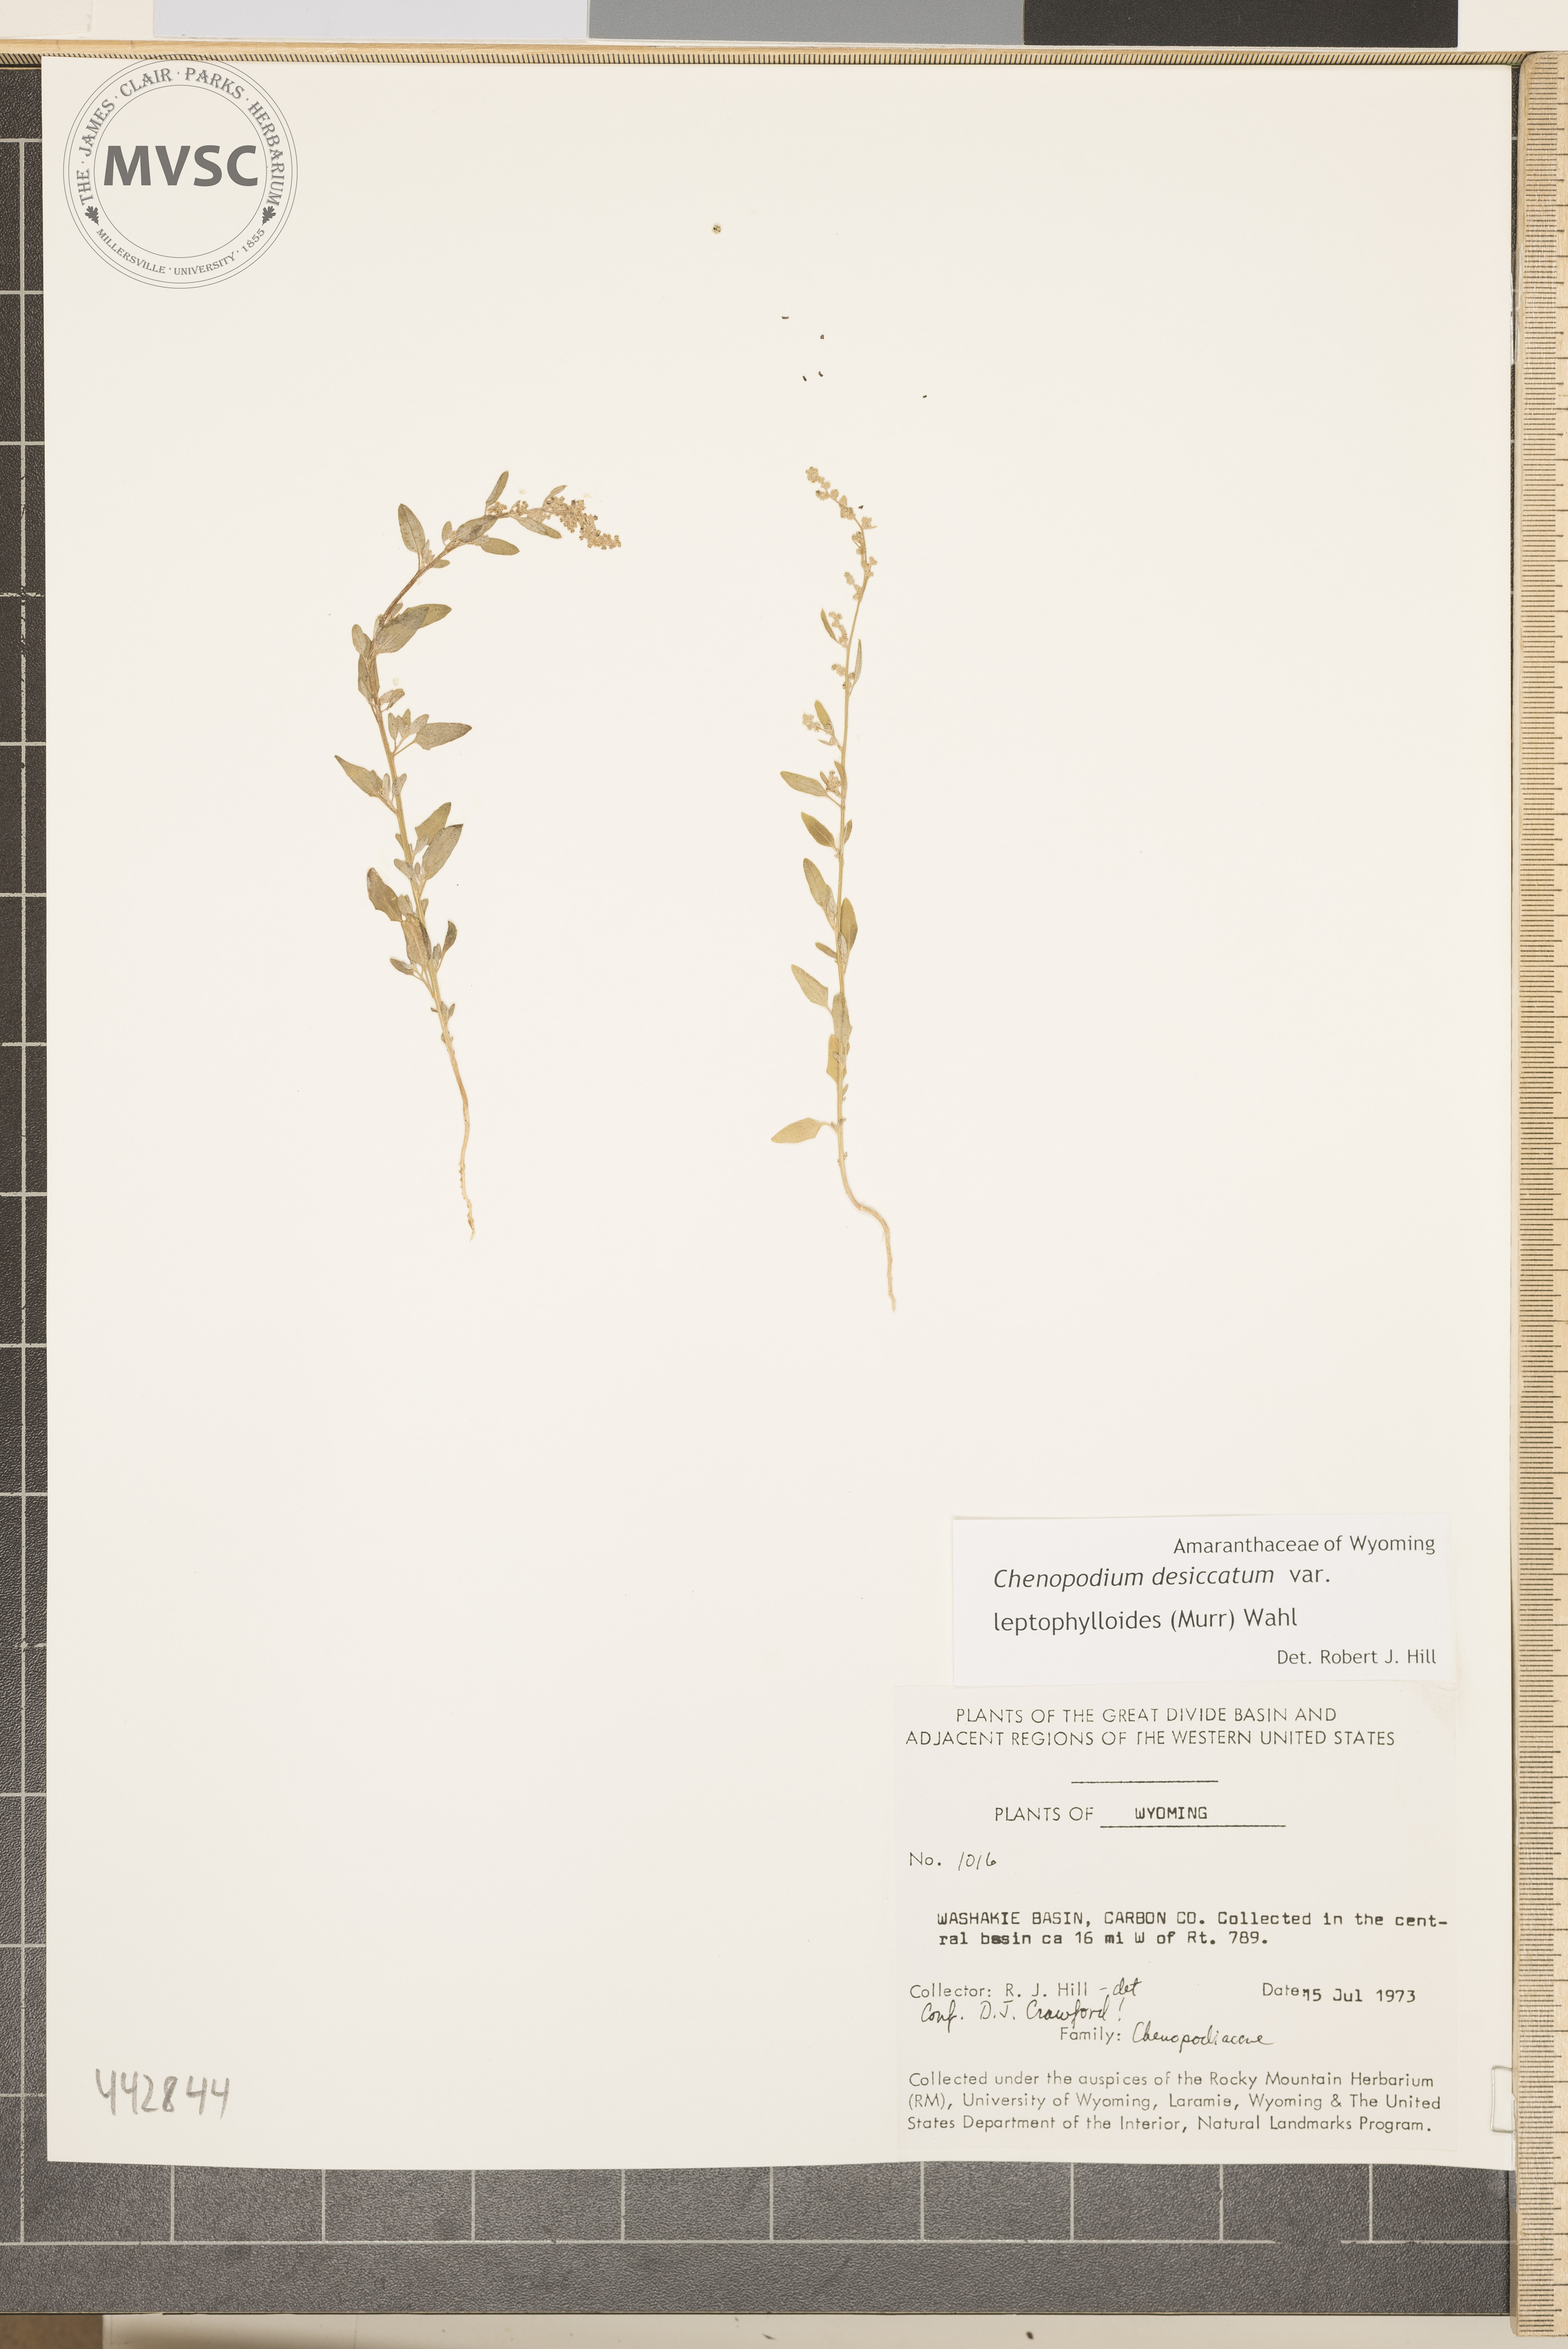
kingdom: Plantae
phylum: Tracheophyta
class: Magnoliopsida
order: Caryophyllales
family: Amaranthaceae
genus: Chenopodium
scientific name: Chenopodium desiccatum
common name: Slimleaf goosefoot
